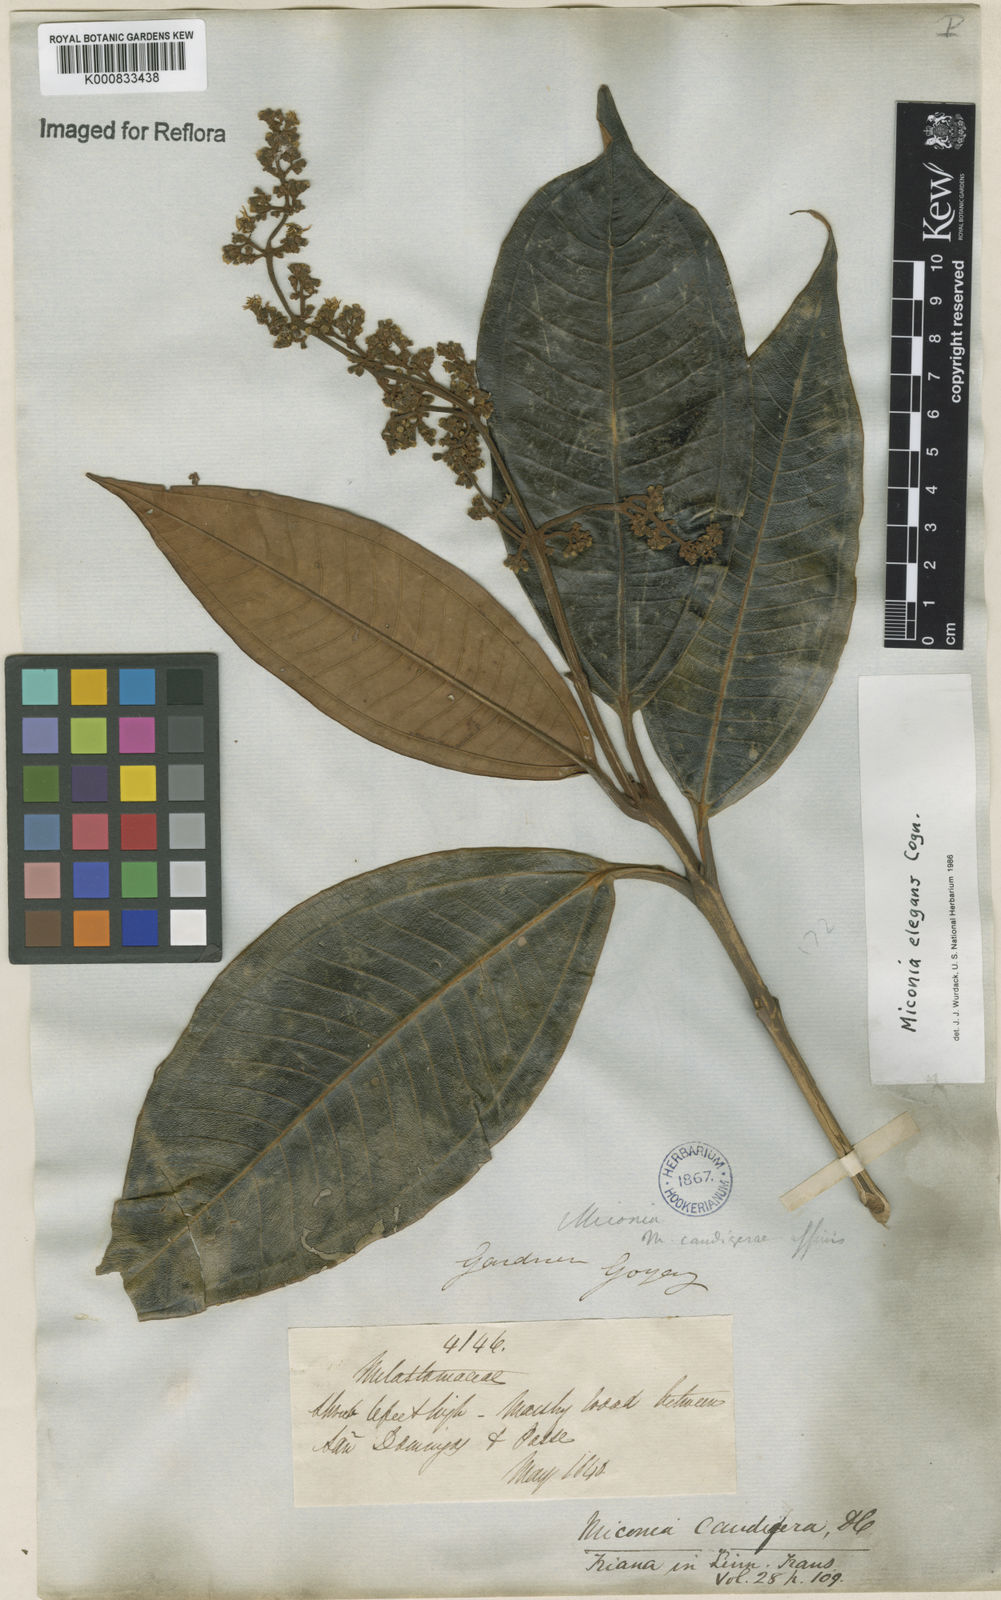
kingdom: Plantae
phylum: Tracheophyta
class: Magnoliopsida
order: Myrtales
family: Melastomataceae
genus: Miconia
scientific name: Miconia elegans
